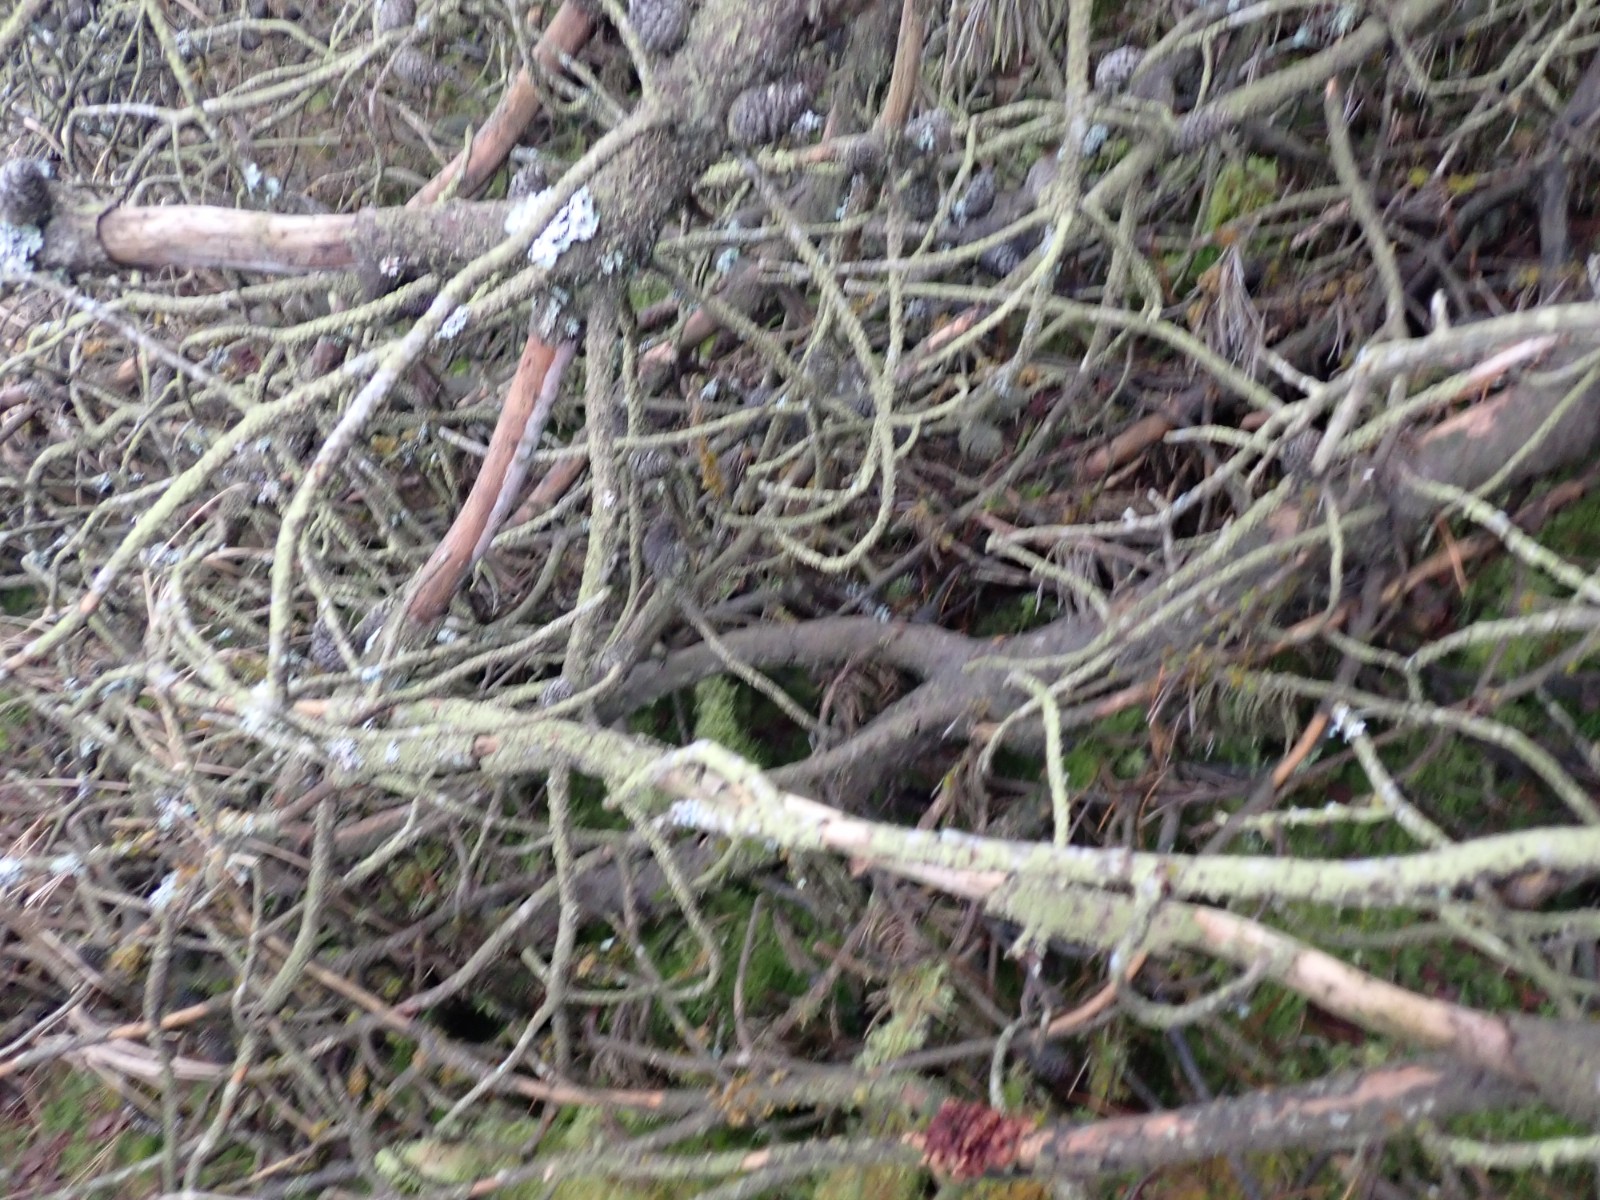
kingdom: Fungi
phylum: Ascomycota
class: Sordariomycetes
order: Hypocreales
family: Hypocreaceae
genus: Hypocreopsis
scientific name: Hypocreopsis lichenoides
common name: pilfinger
